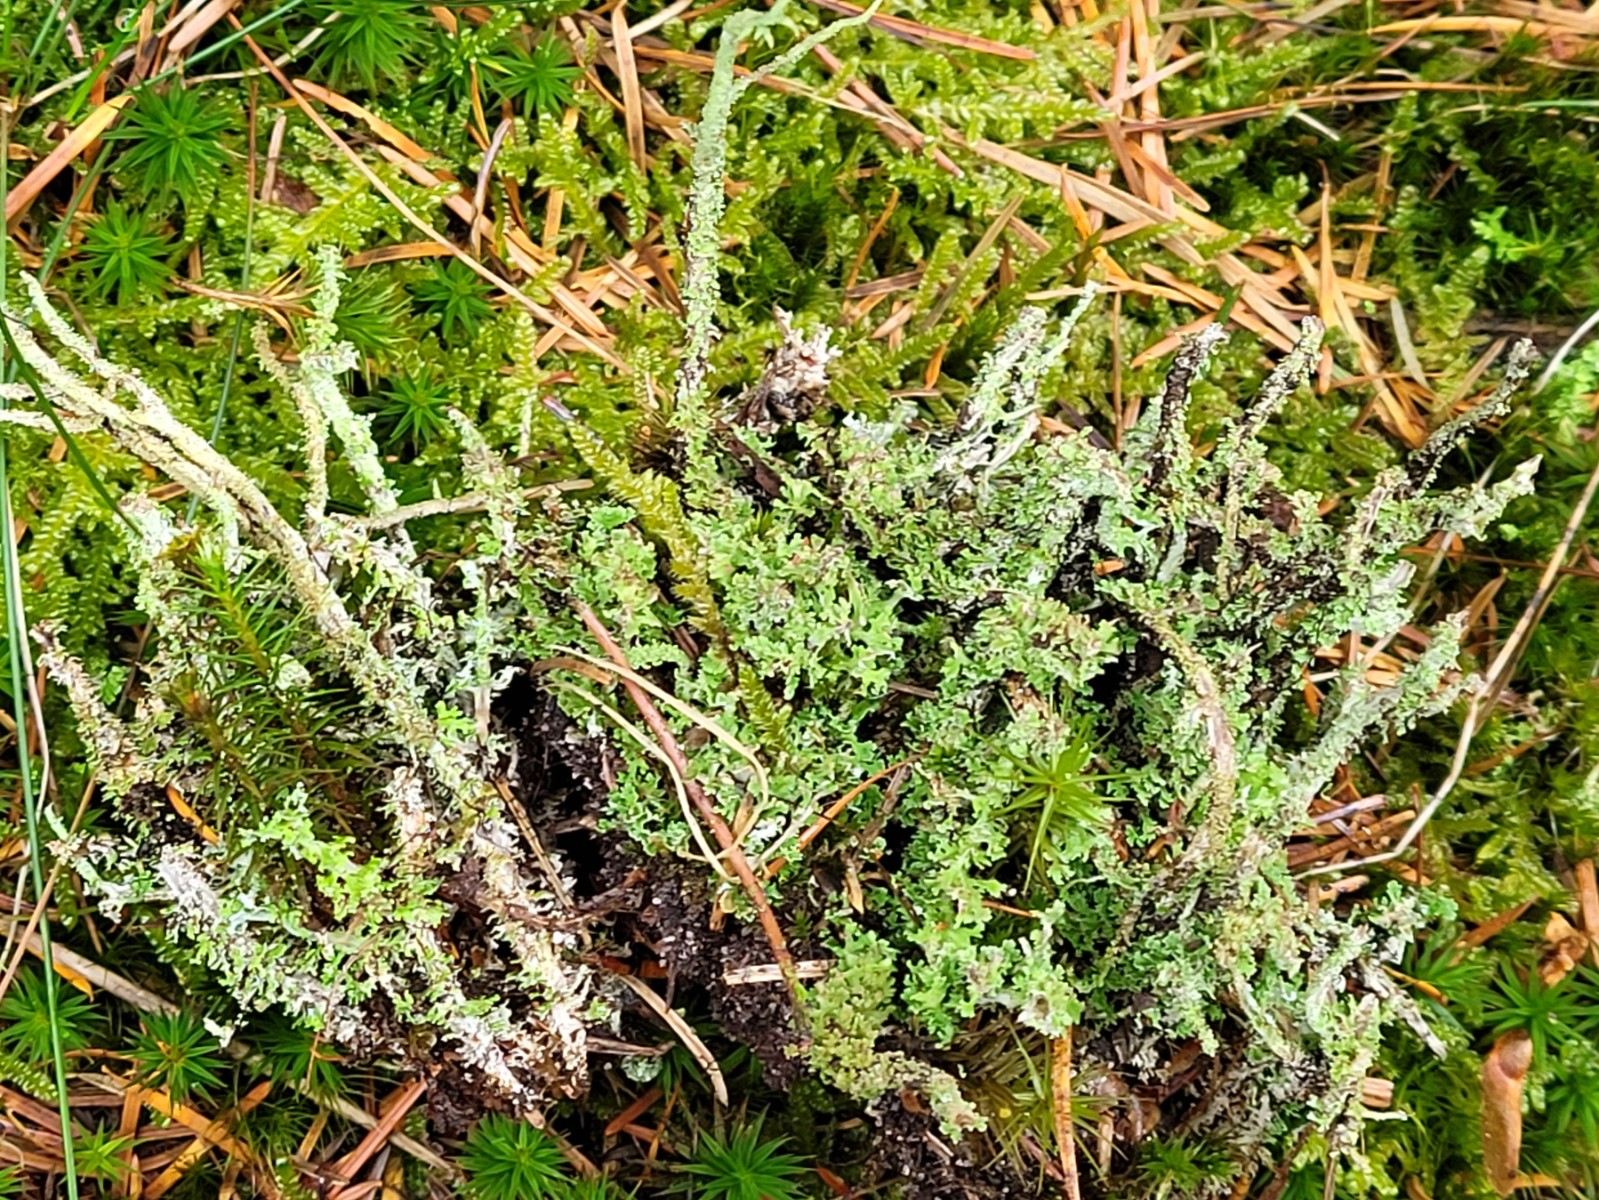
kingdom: Fungi
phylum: Ascomycota
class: Lecanoromycetes
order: Lecanorales
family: Cladoniaceae
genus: Cladonia
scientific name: Cladonia squamosa
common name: skælklædt bægerlav
